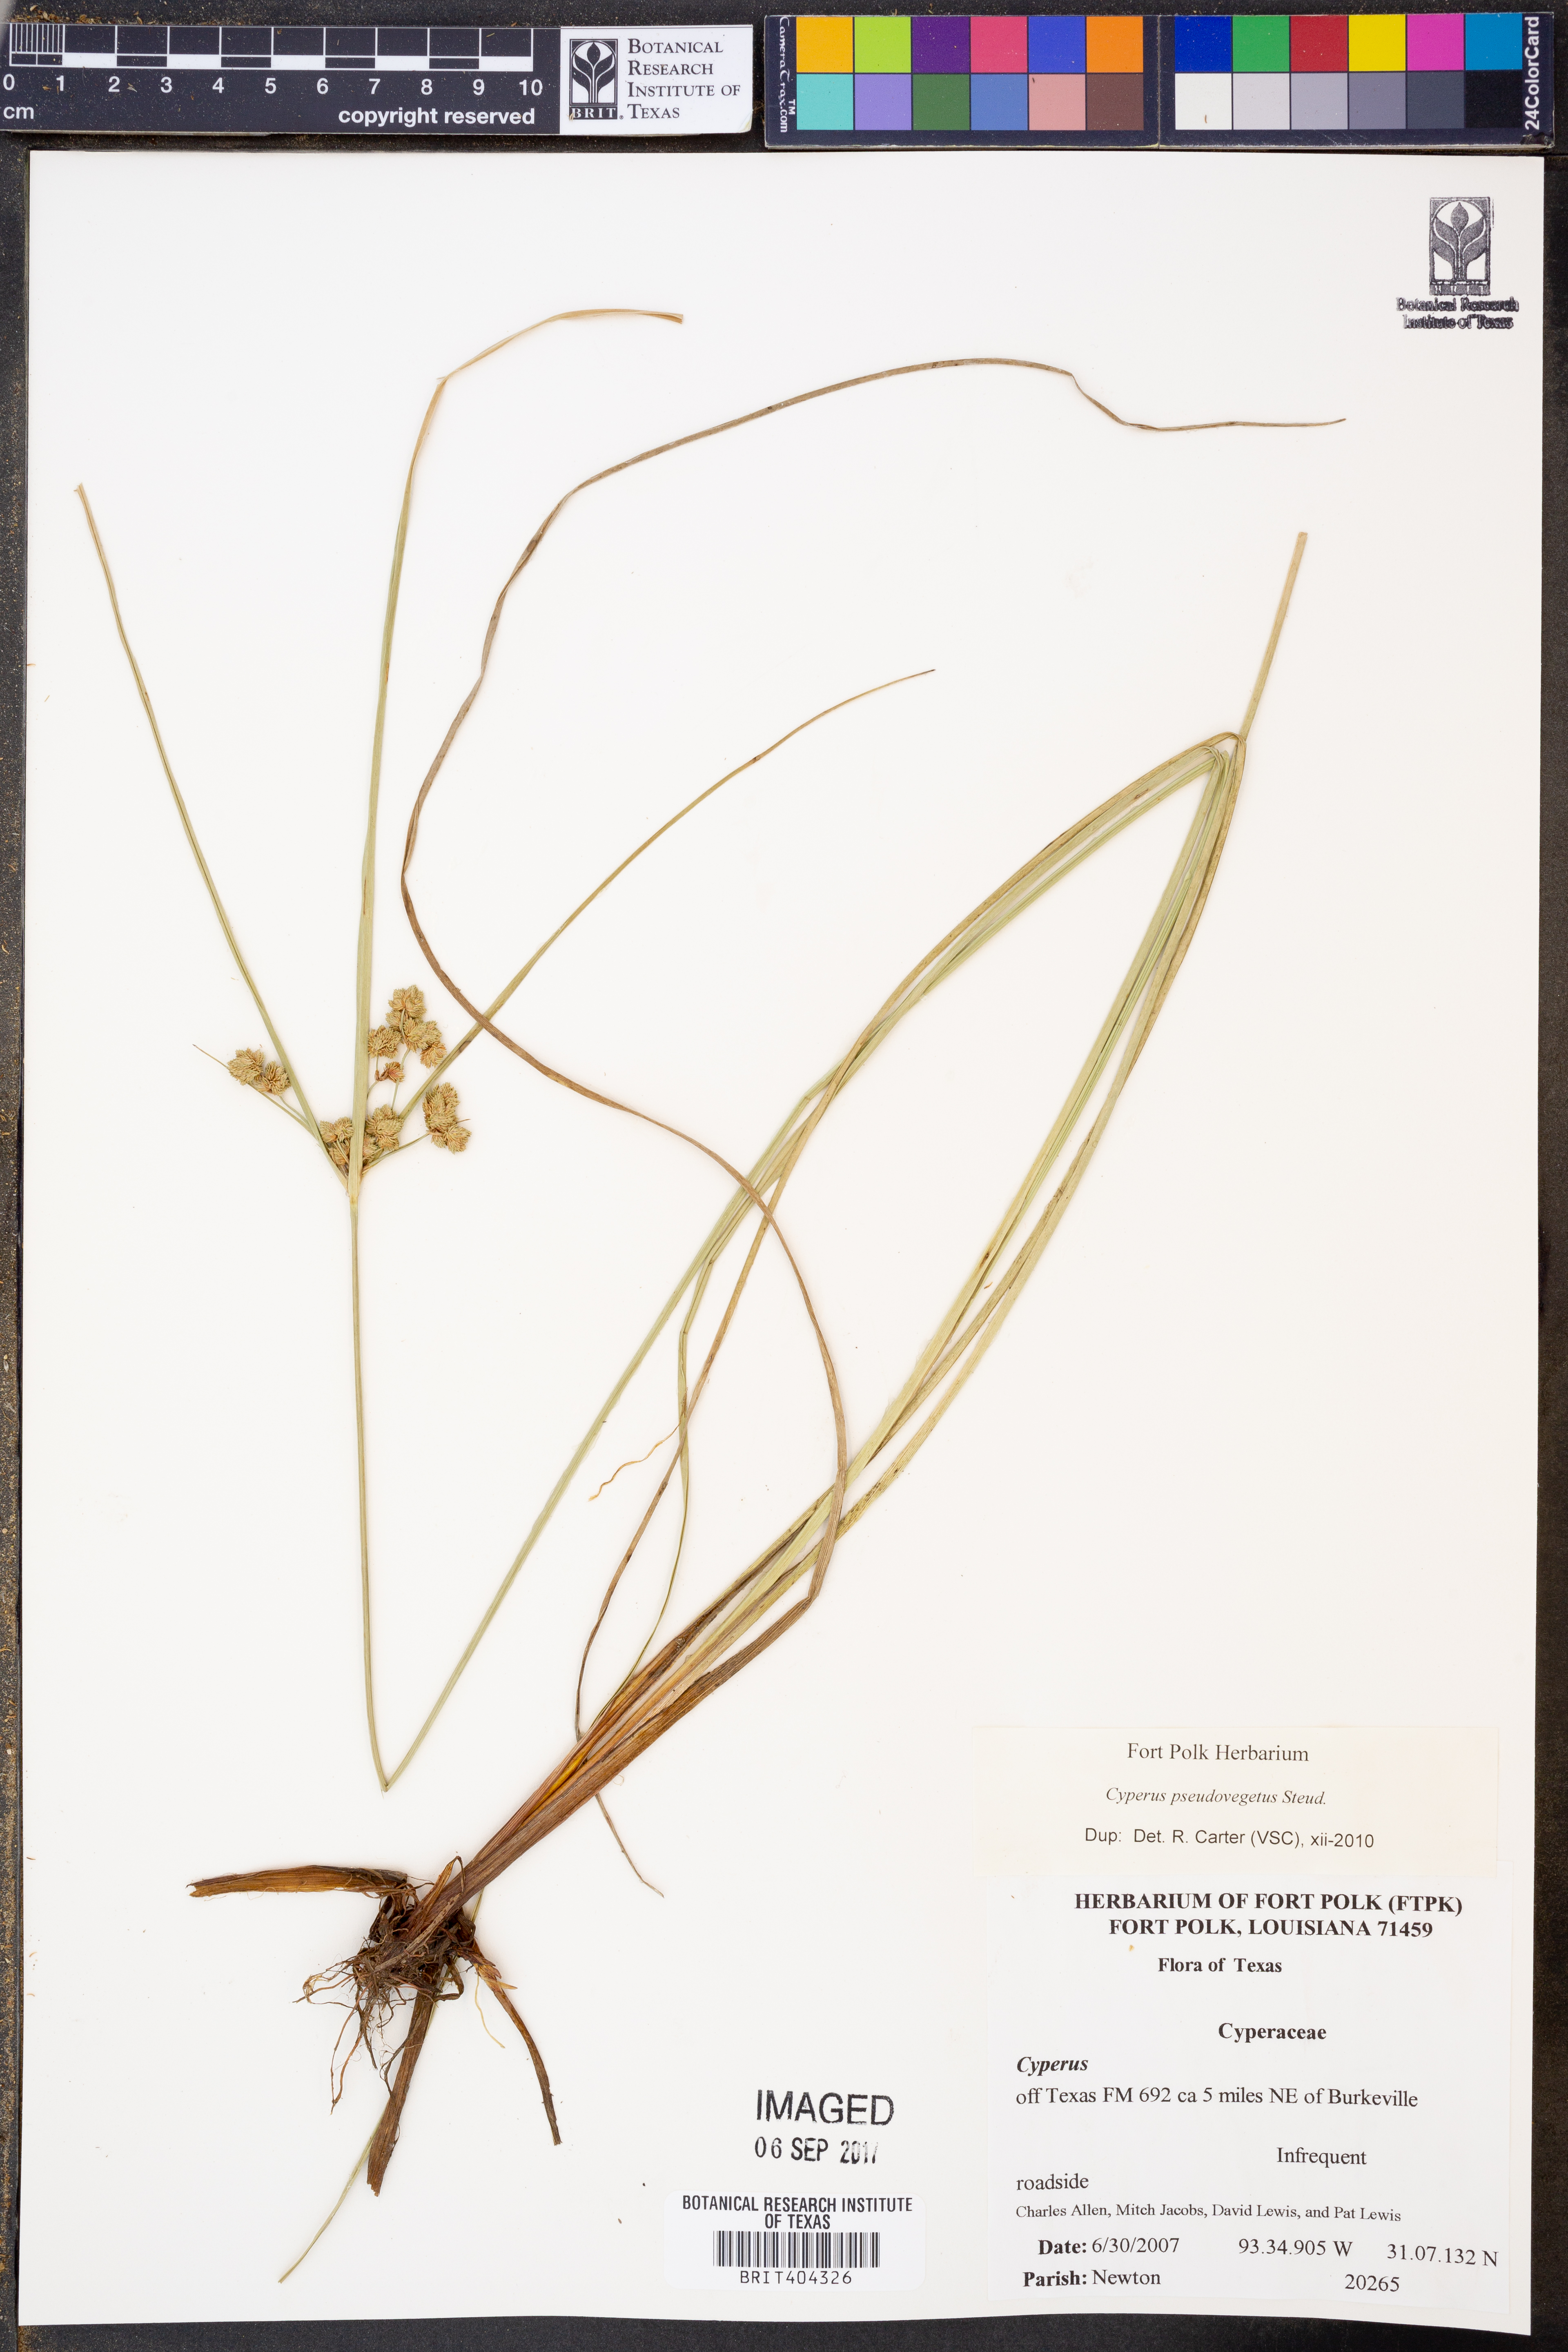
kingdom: Plantae
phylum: Tracheophyta
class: Liliopsida
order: Poales
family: Cyperaceae
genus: Cyperus
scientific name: Cyperus pseudovegetus
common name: Marsh flat sedge
